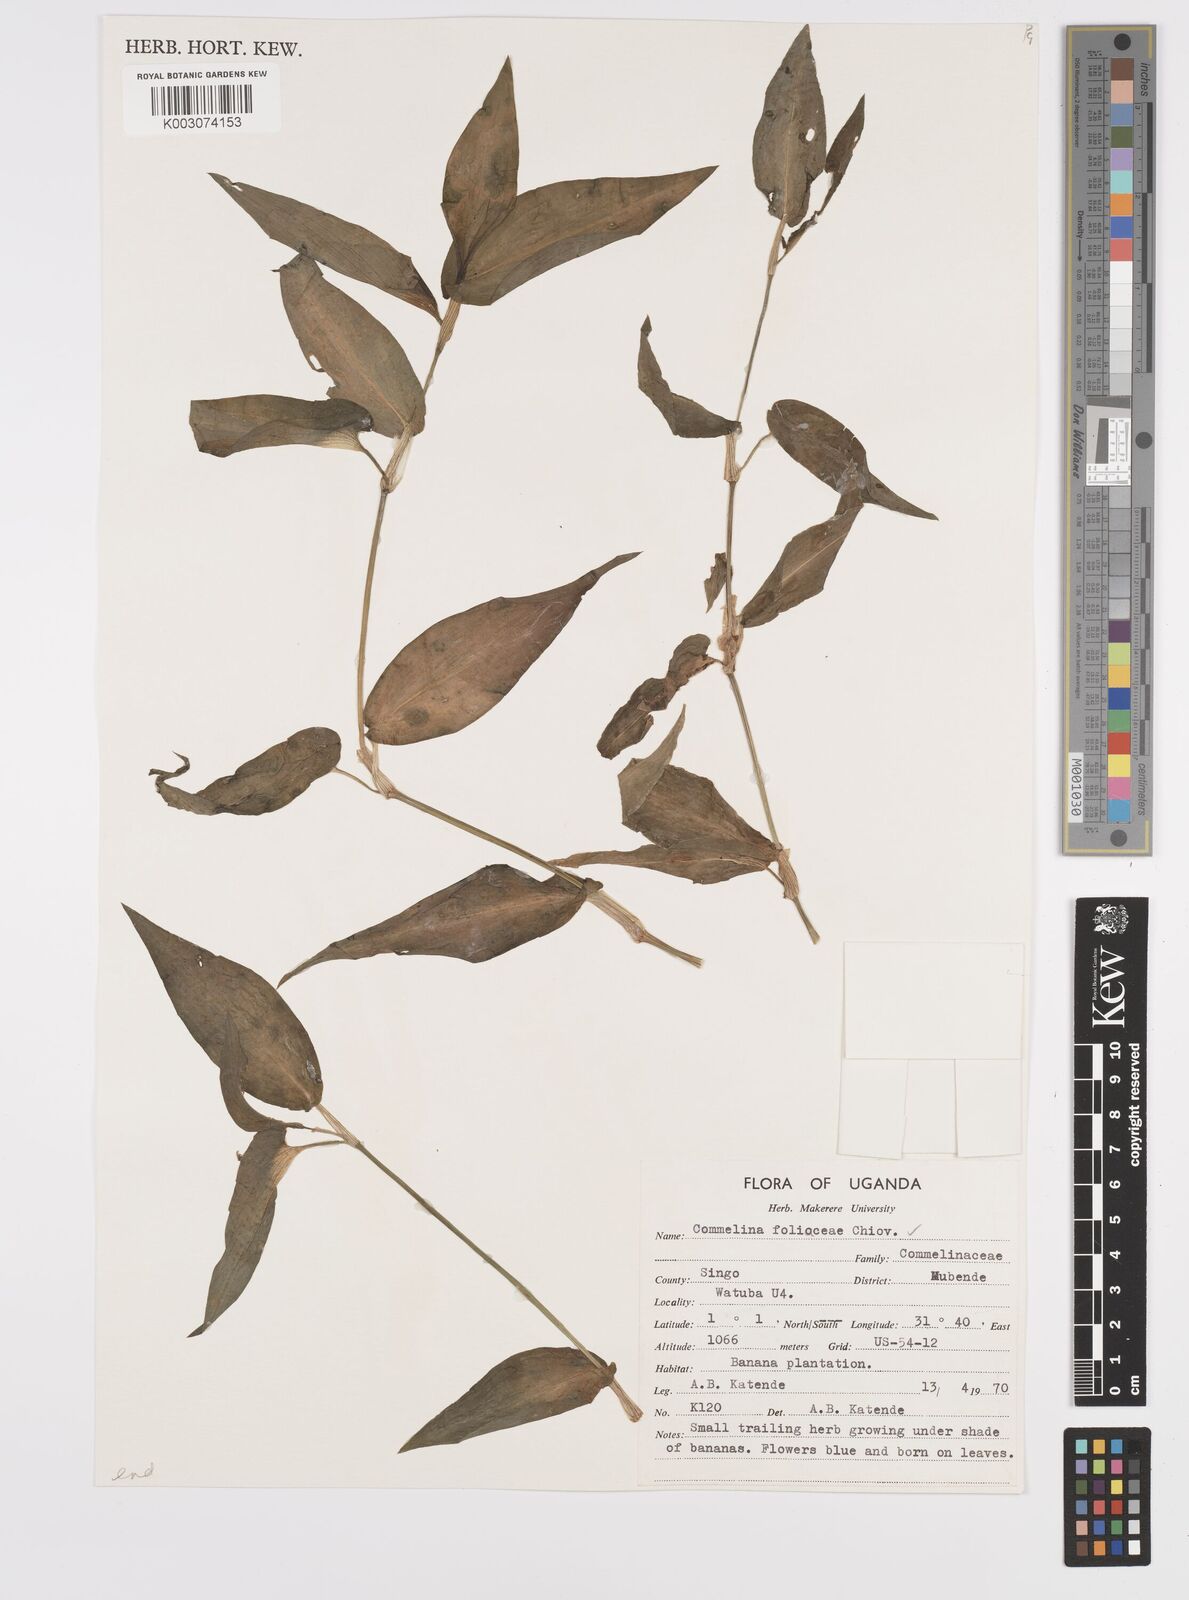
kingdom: Plantae
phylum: Tracheophyta
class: Liliopsida
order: Commelinales
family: Commelinaceae
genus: Commelina
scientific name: Commelina foliacea
